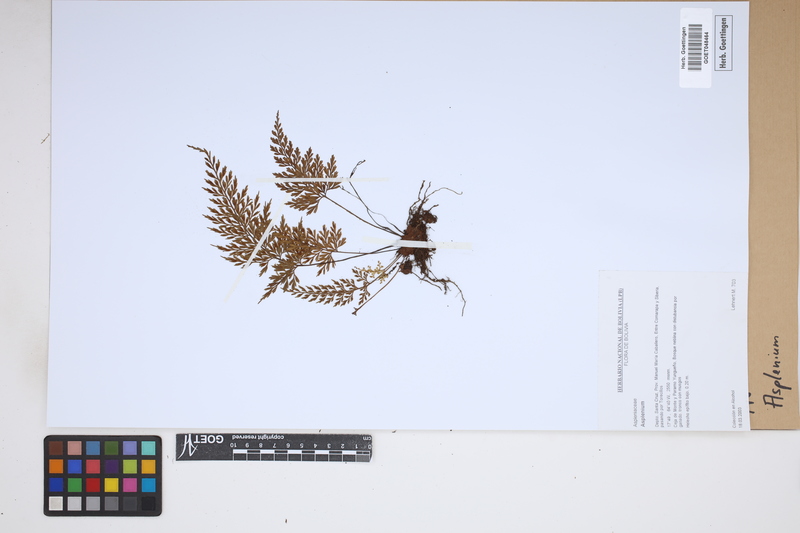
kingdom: Plantae
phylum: Tracheophyta
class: Polypodiopsida
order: Polypodiales
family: Aspleniaceae
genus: Asplenium
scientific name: Asplenium
